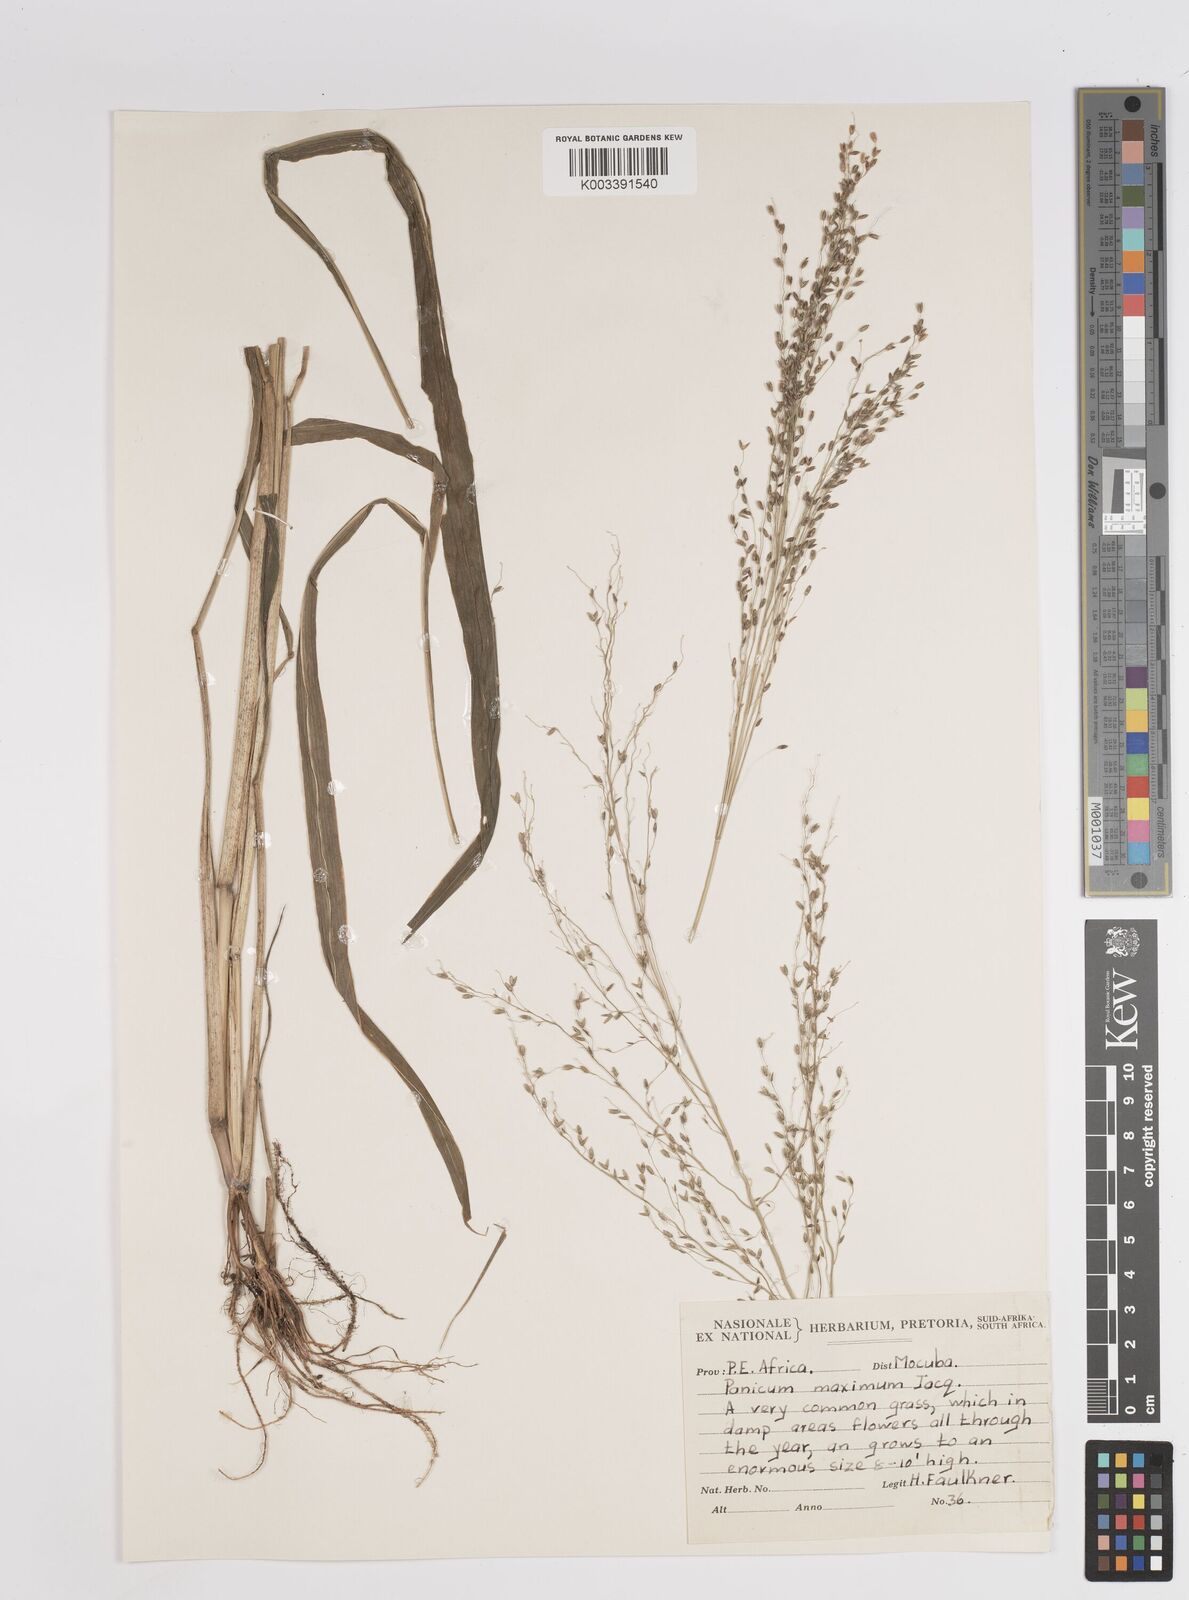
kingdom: Plantae
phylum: Tracheophyta
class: Liliopsida
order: Poales
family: Poaceae
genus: Megathyrsus
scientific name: Megathyrsus maximus
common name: Guineagrass
